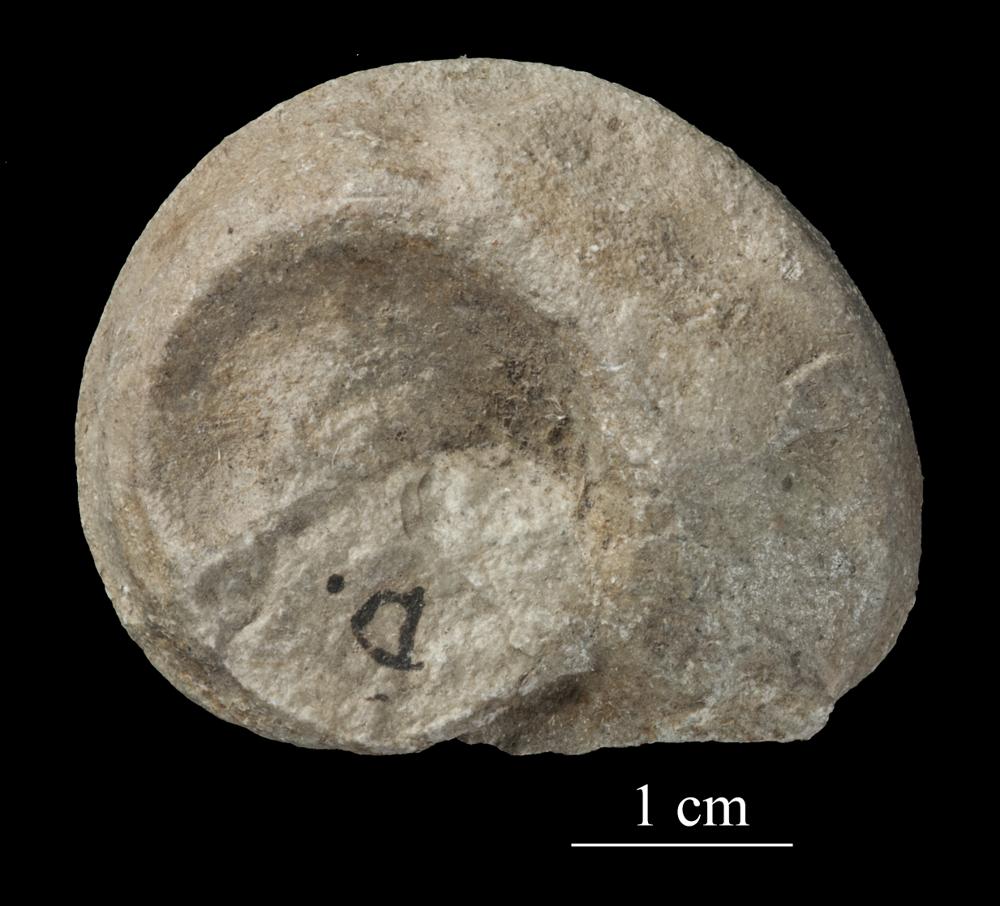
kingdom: Animalia
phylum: Mollusca
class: Gastropoda
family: Lophospiridae
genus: Lophospira
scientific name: Lophospira lyckholmiensis
